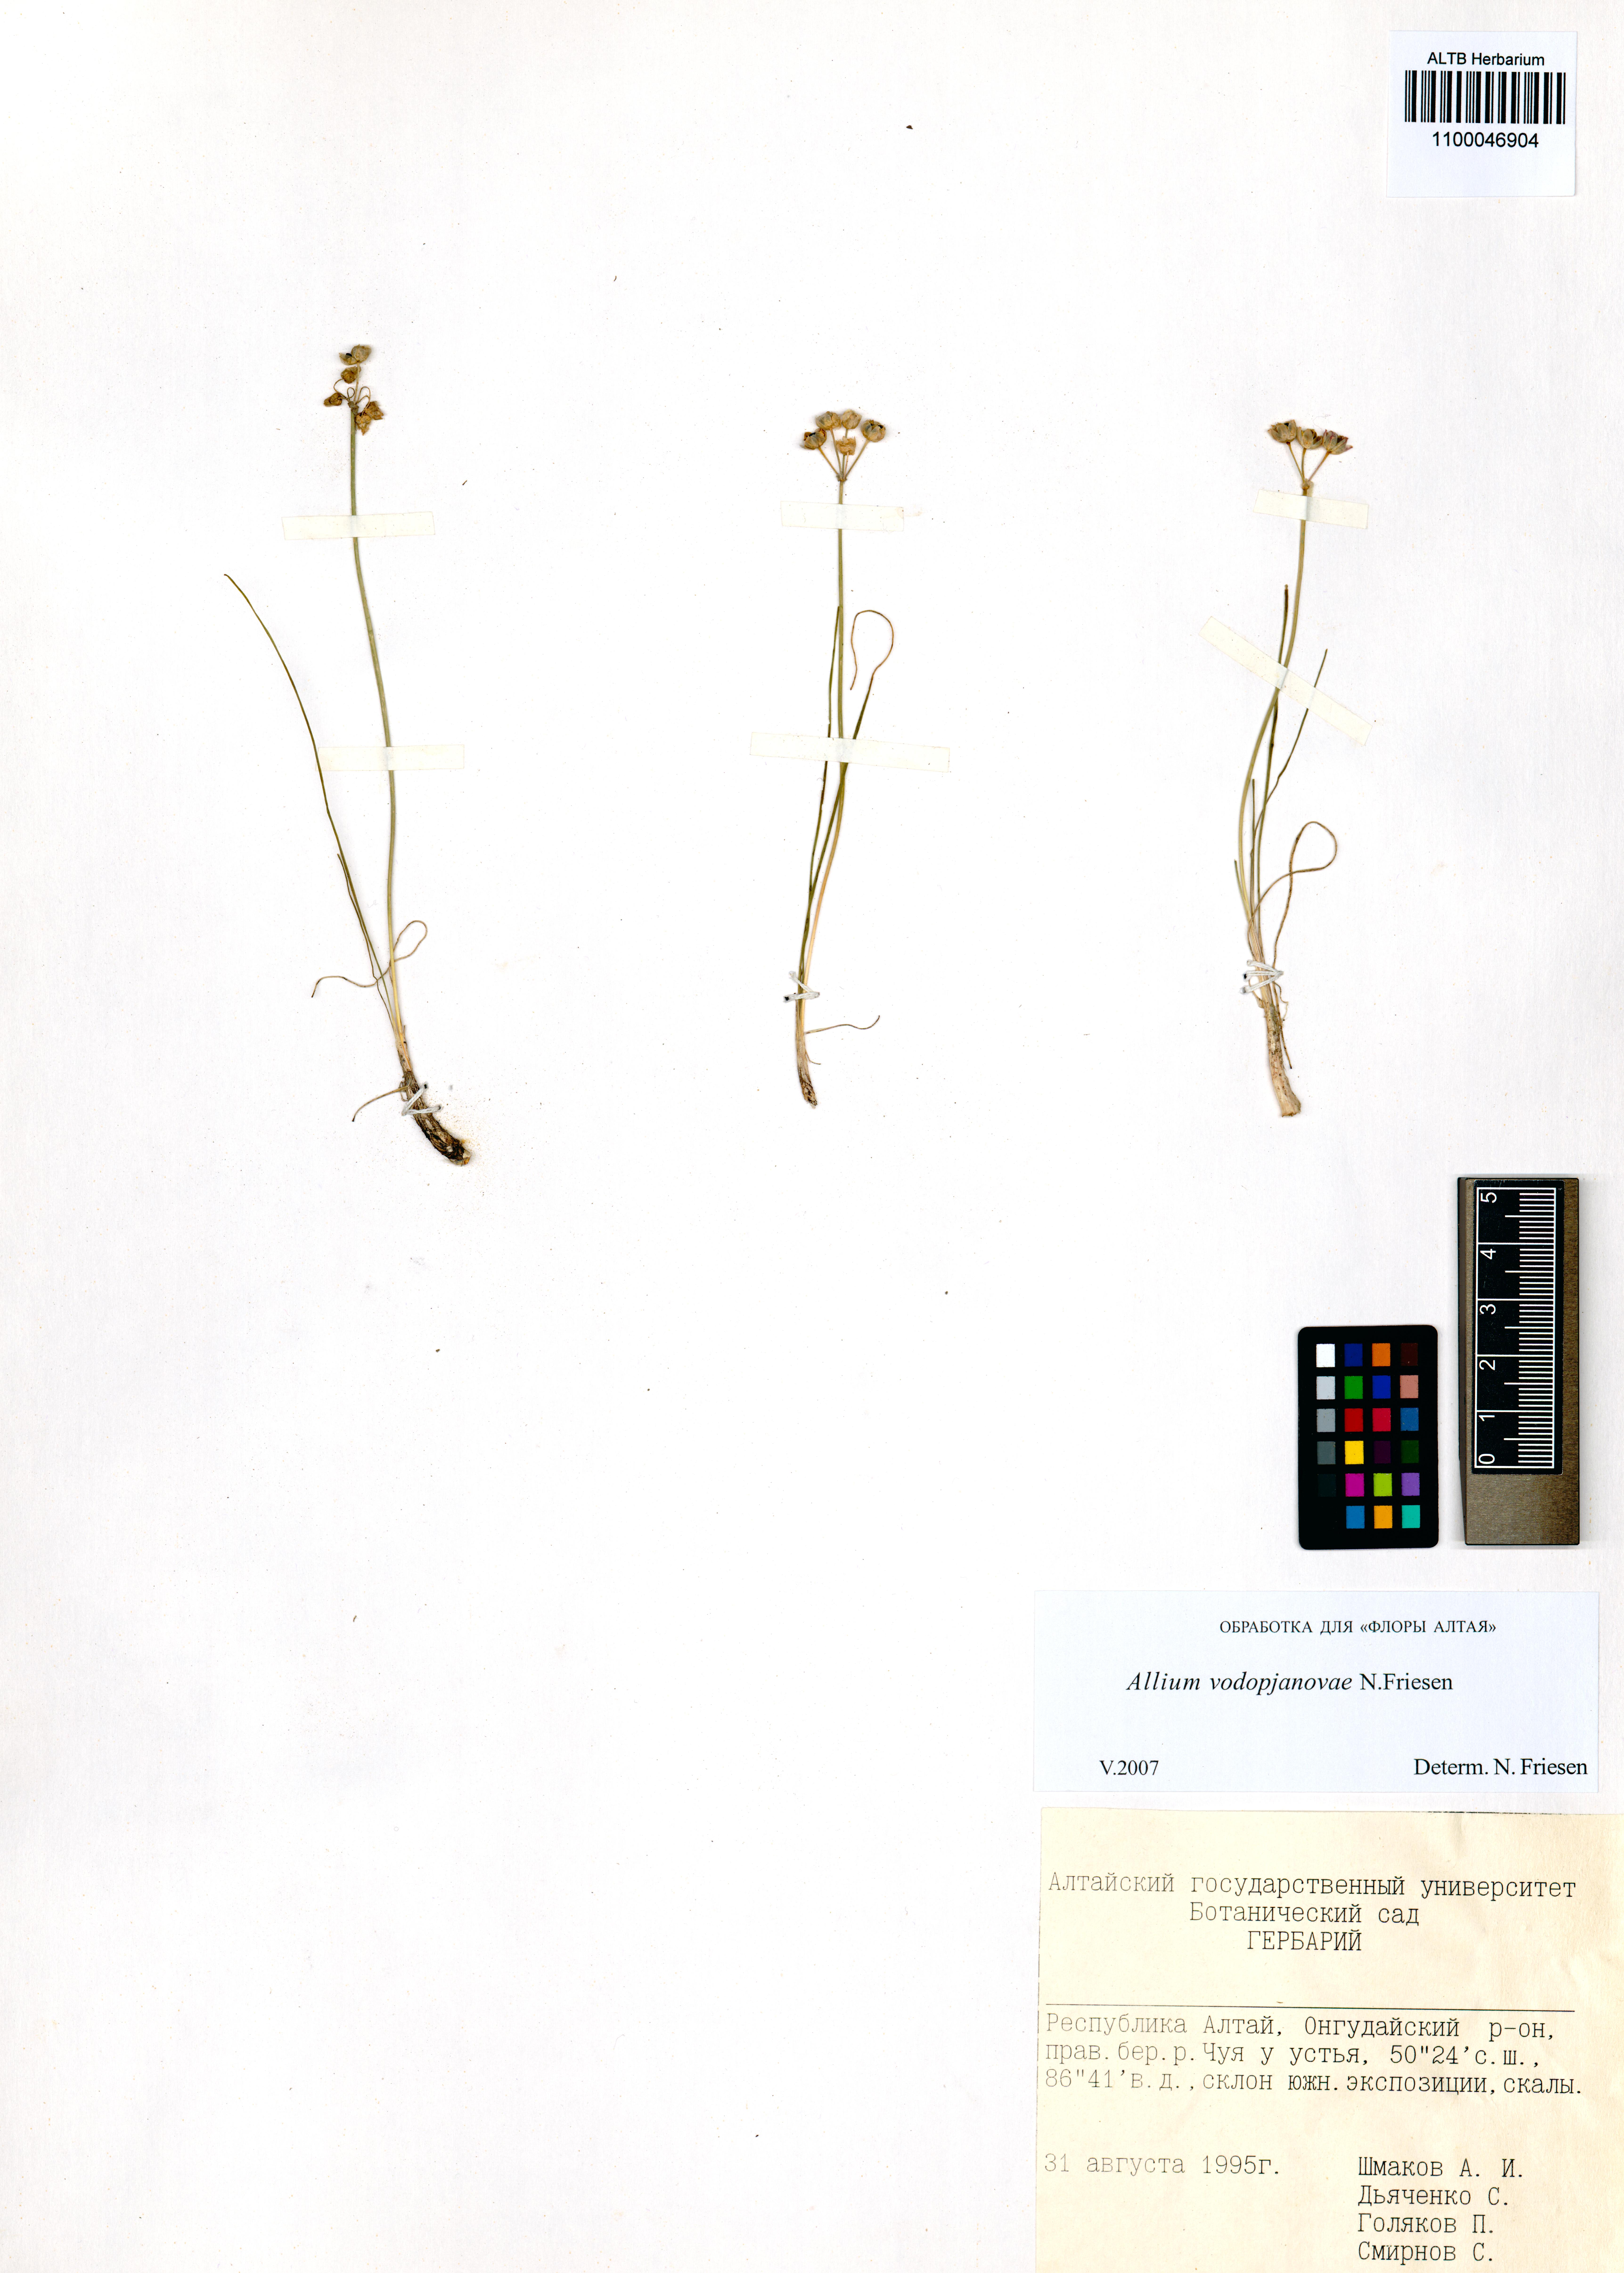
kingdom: Plantae
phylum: Tracheophyta
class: Liliopsida
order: Asparagales
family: Amaryllidaceae
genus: Allium
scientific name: Allium vodopjanovae
